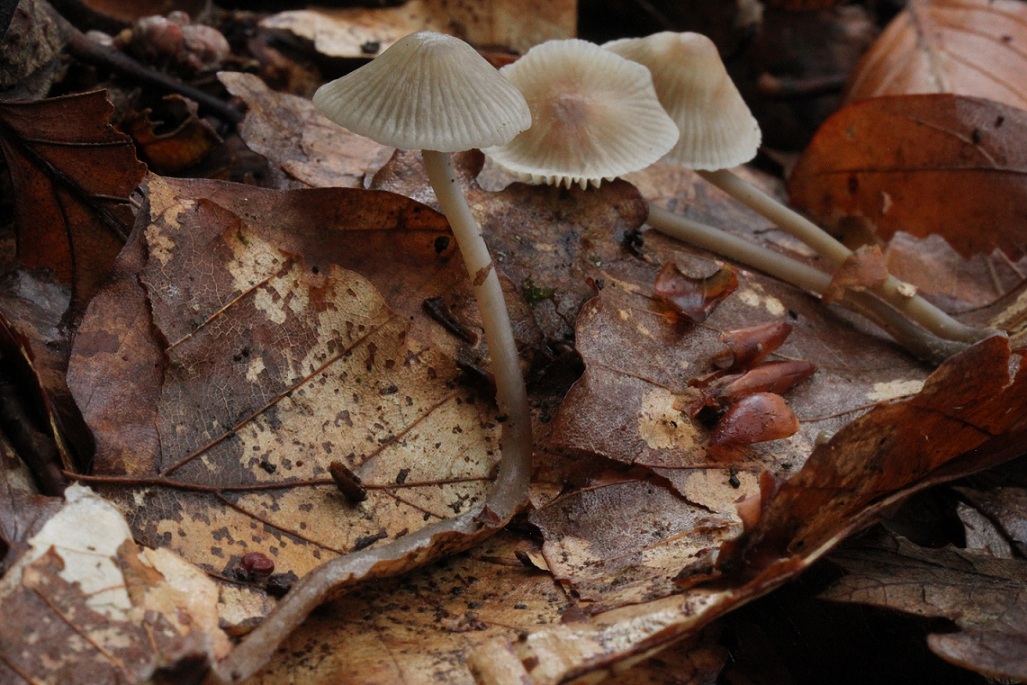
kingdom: Fungi
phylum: Basidiomycota
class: Agaricomycetes
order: Agaricales
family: Mycenaceae
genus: Mycena
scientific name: Mycena fagetorum
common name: bøgeløv-huesvamp
